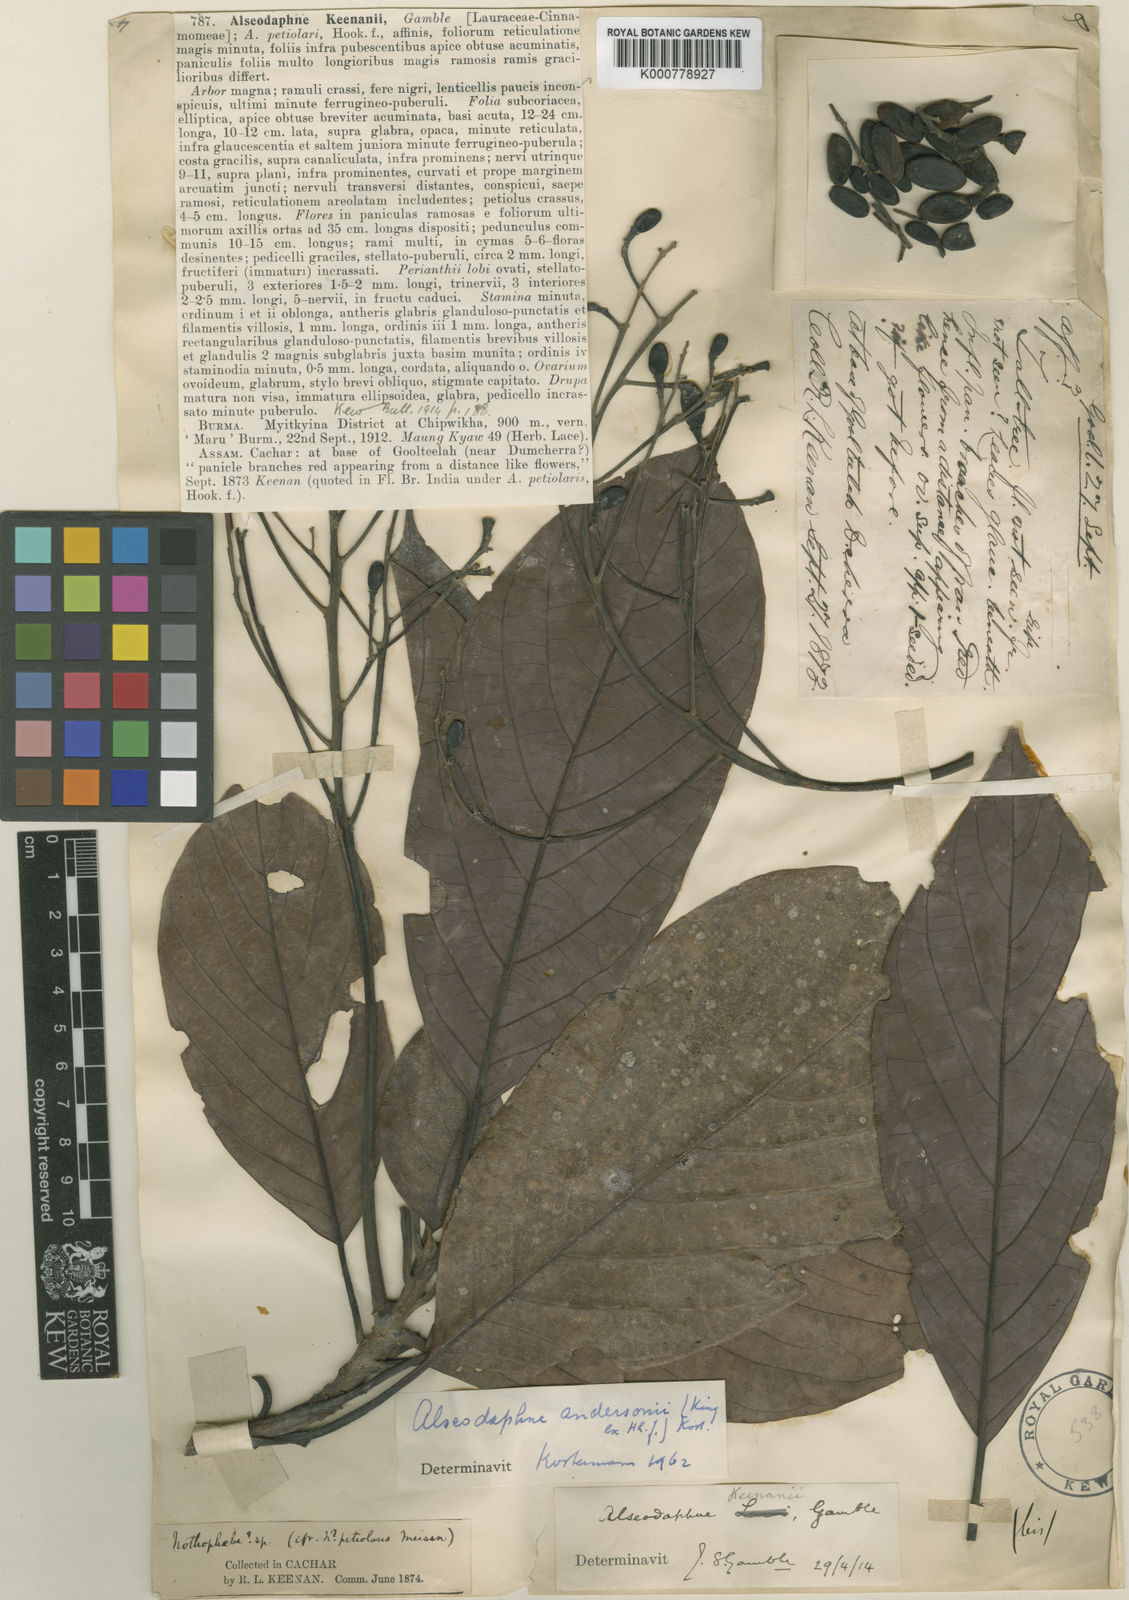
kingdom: Plantae
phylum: Tracheophyta
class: Magnoliopsida
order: Laurales
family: Lauraceae
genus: Alseodaphnopsis
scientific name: Alseodaphnopsis andersonii
